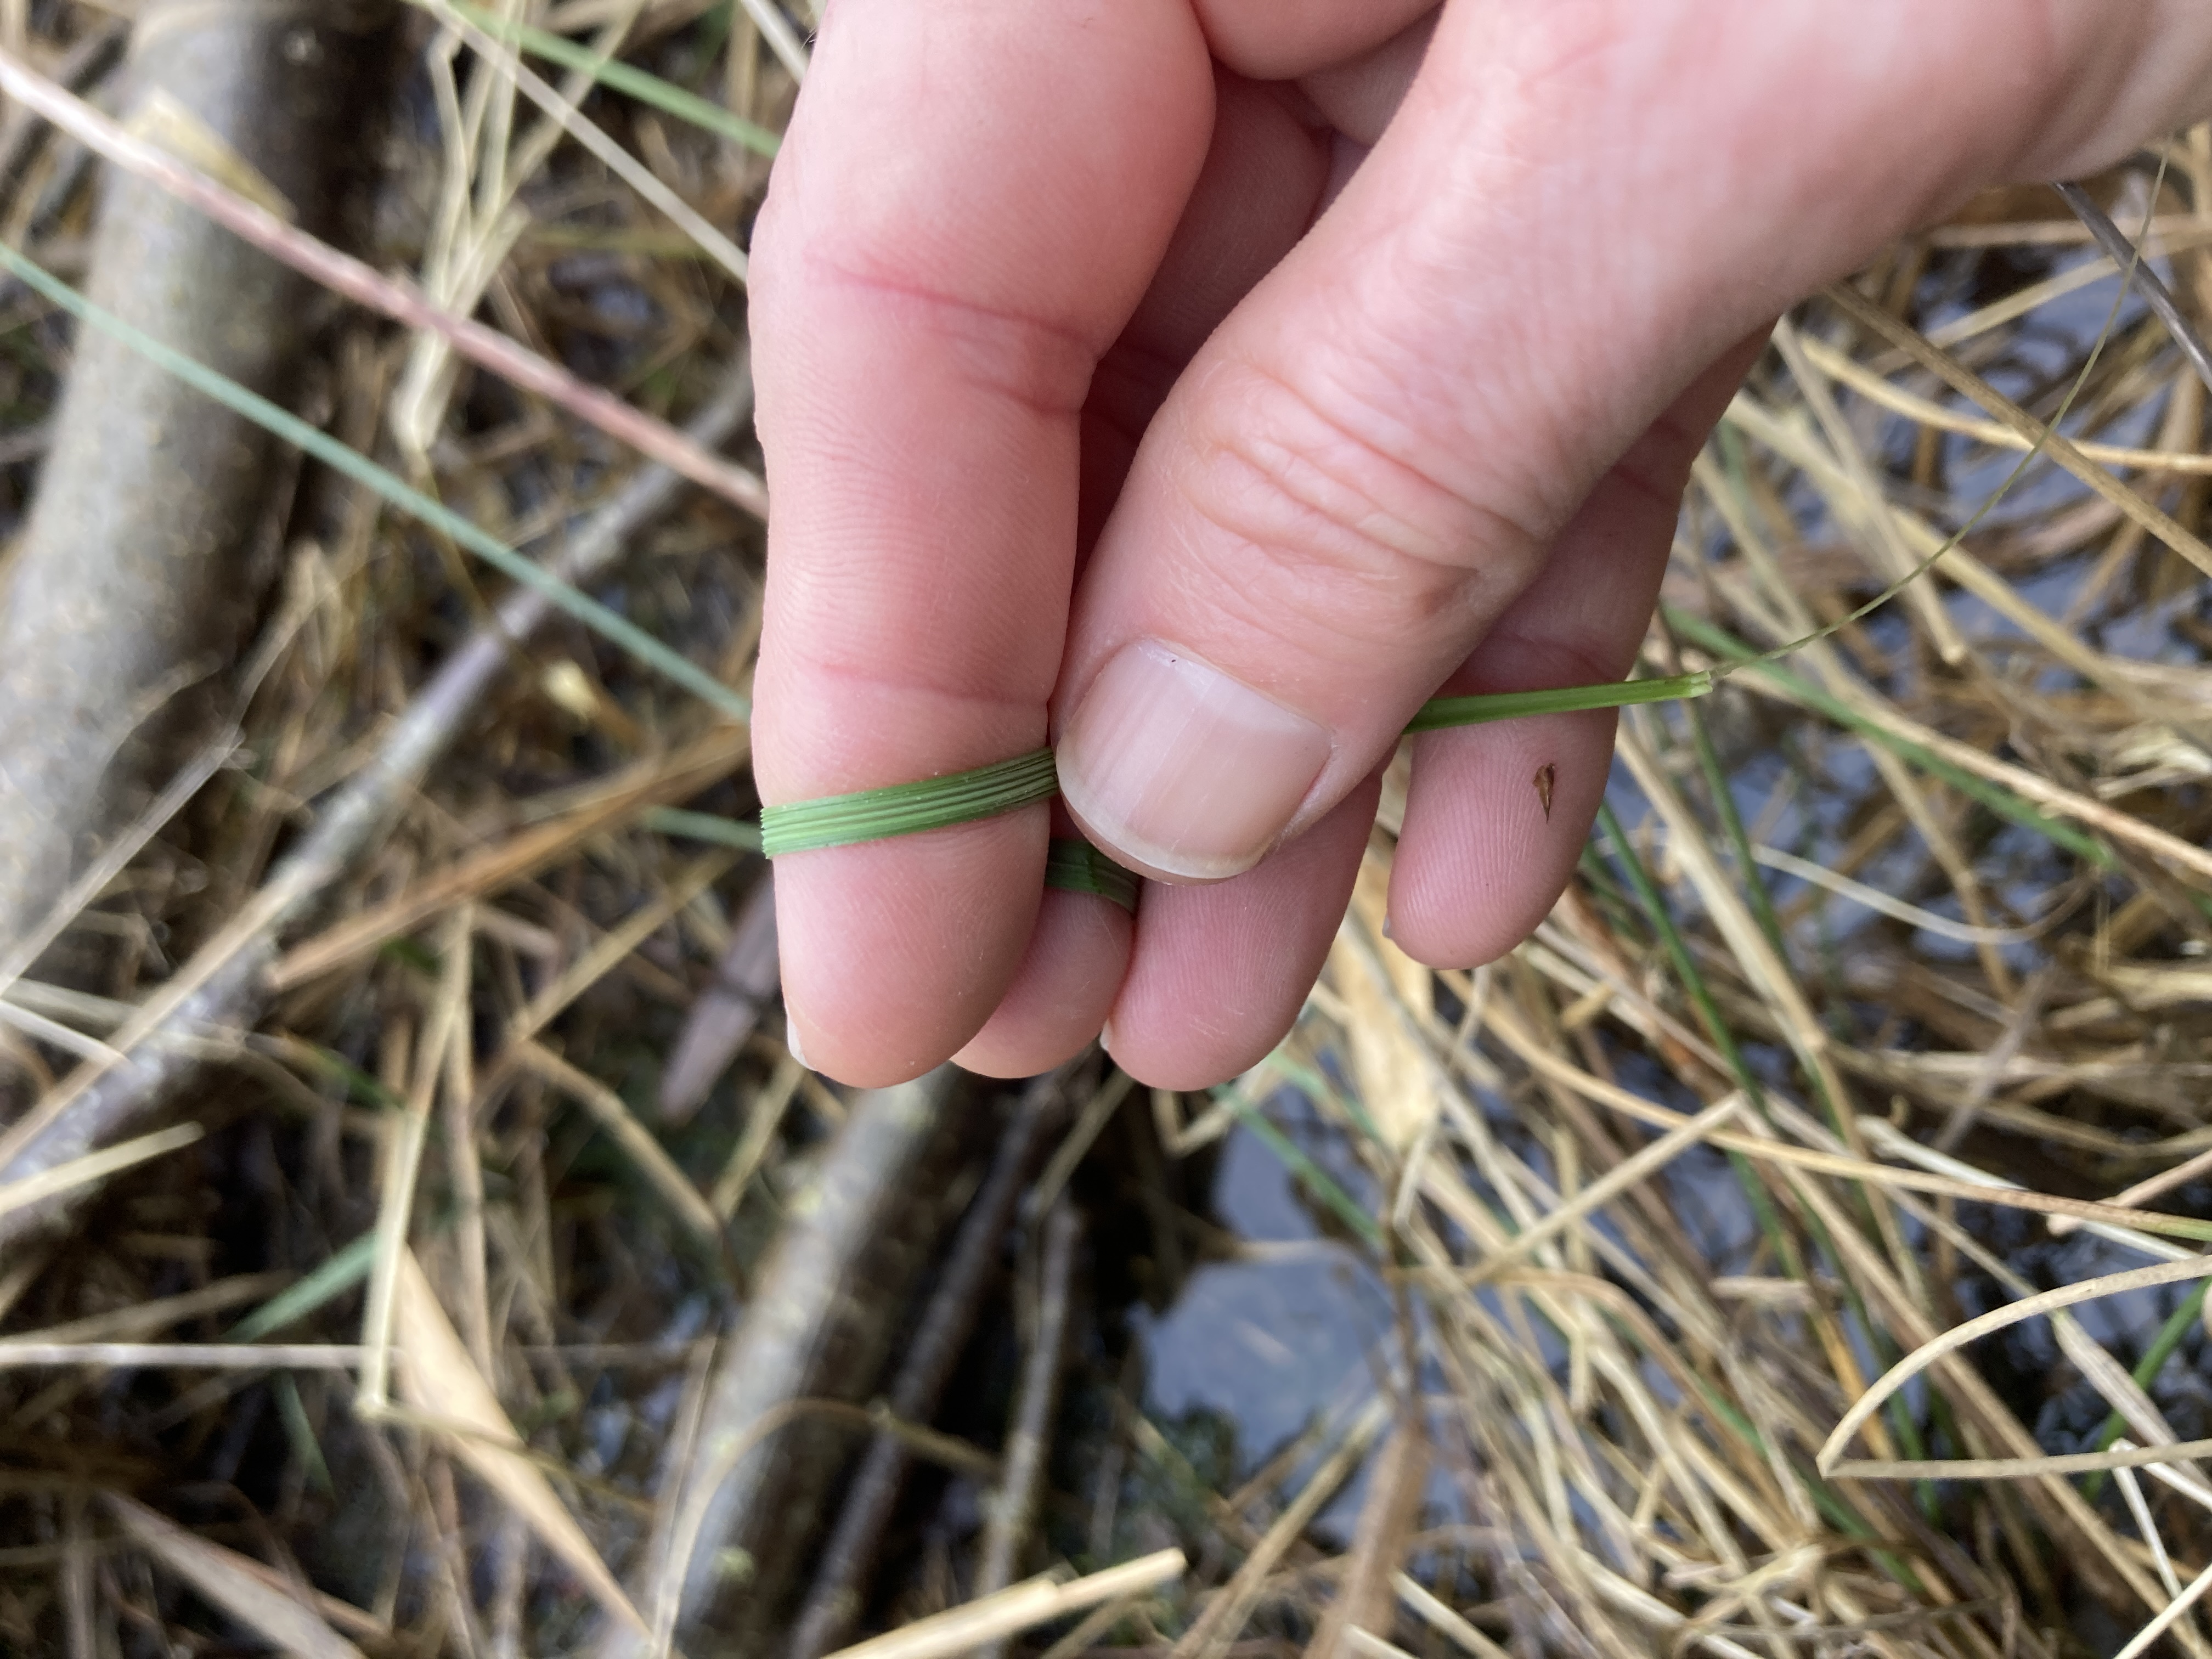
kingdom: Plantae
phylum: Tracheophyta
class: Liliopsida
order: Poales
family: Poaceae
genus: Deschampsia
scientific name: Deschampsia cespitosa
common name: Mose-bunke
